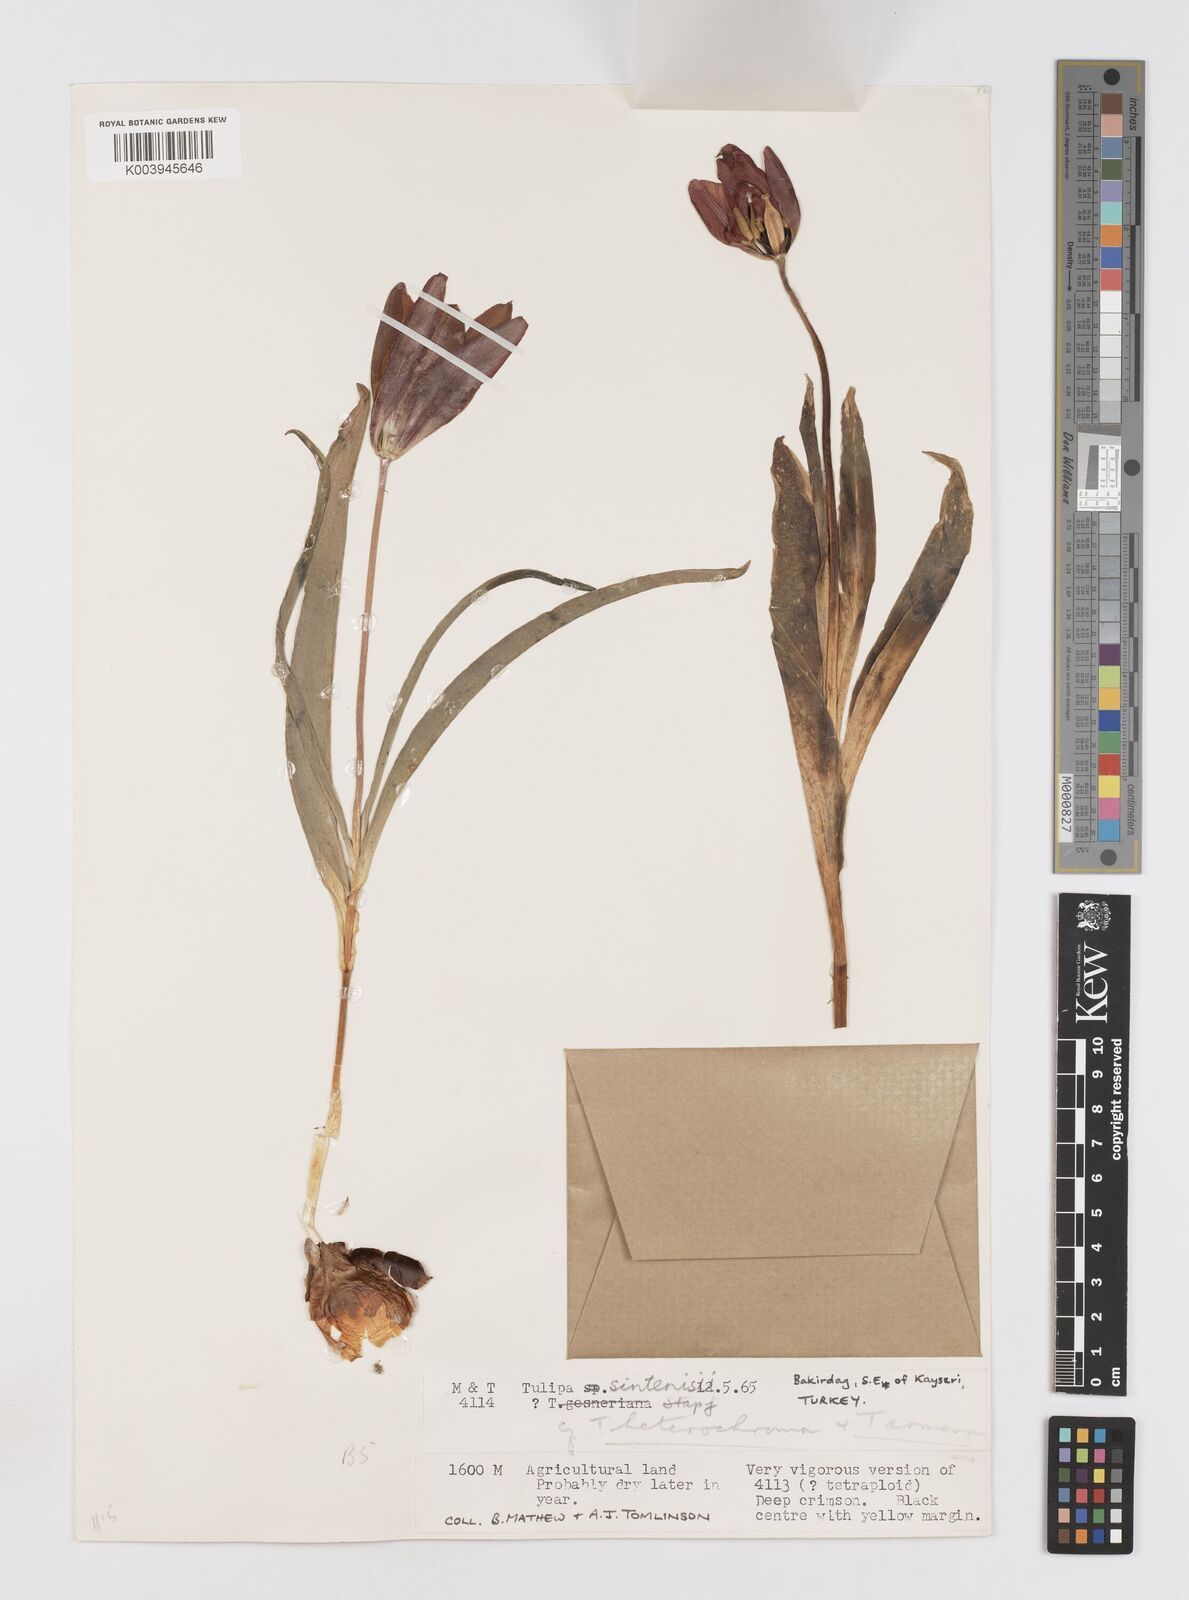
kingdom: Plantae
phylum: Tracheophyta
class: Liliopsida
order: Liliales
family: Liliaceae
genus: Tulipa
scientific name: Tulipa aleppensis
